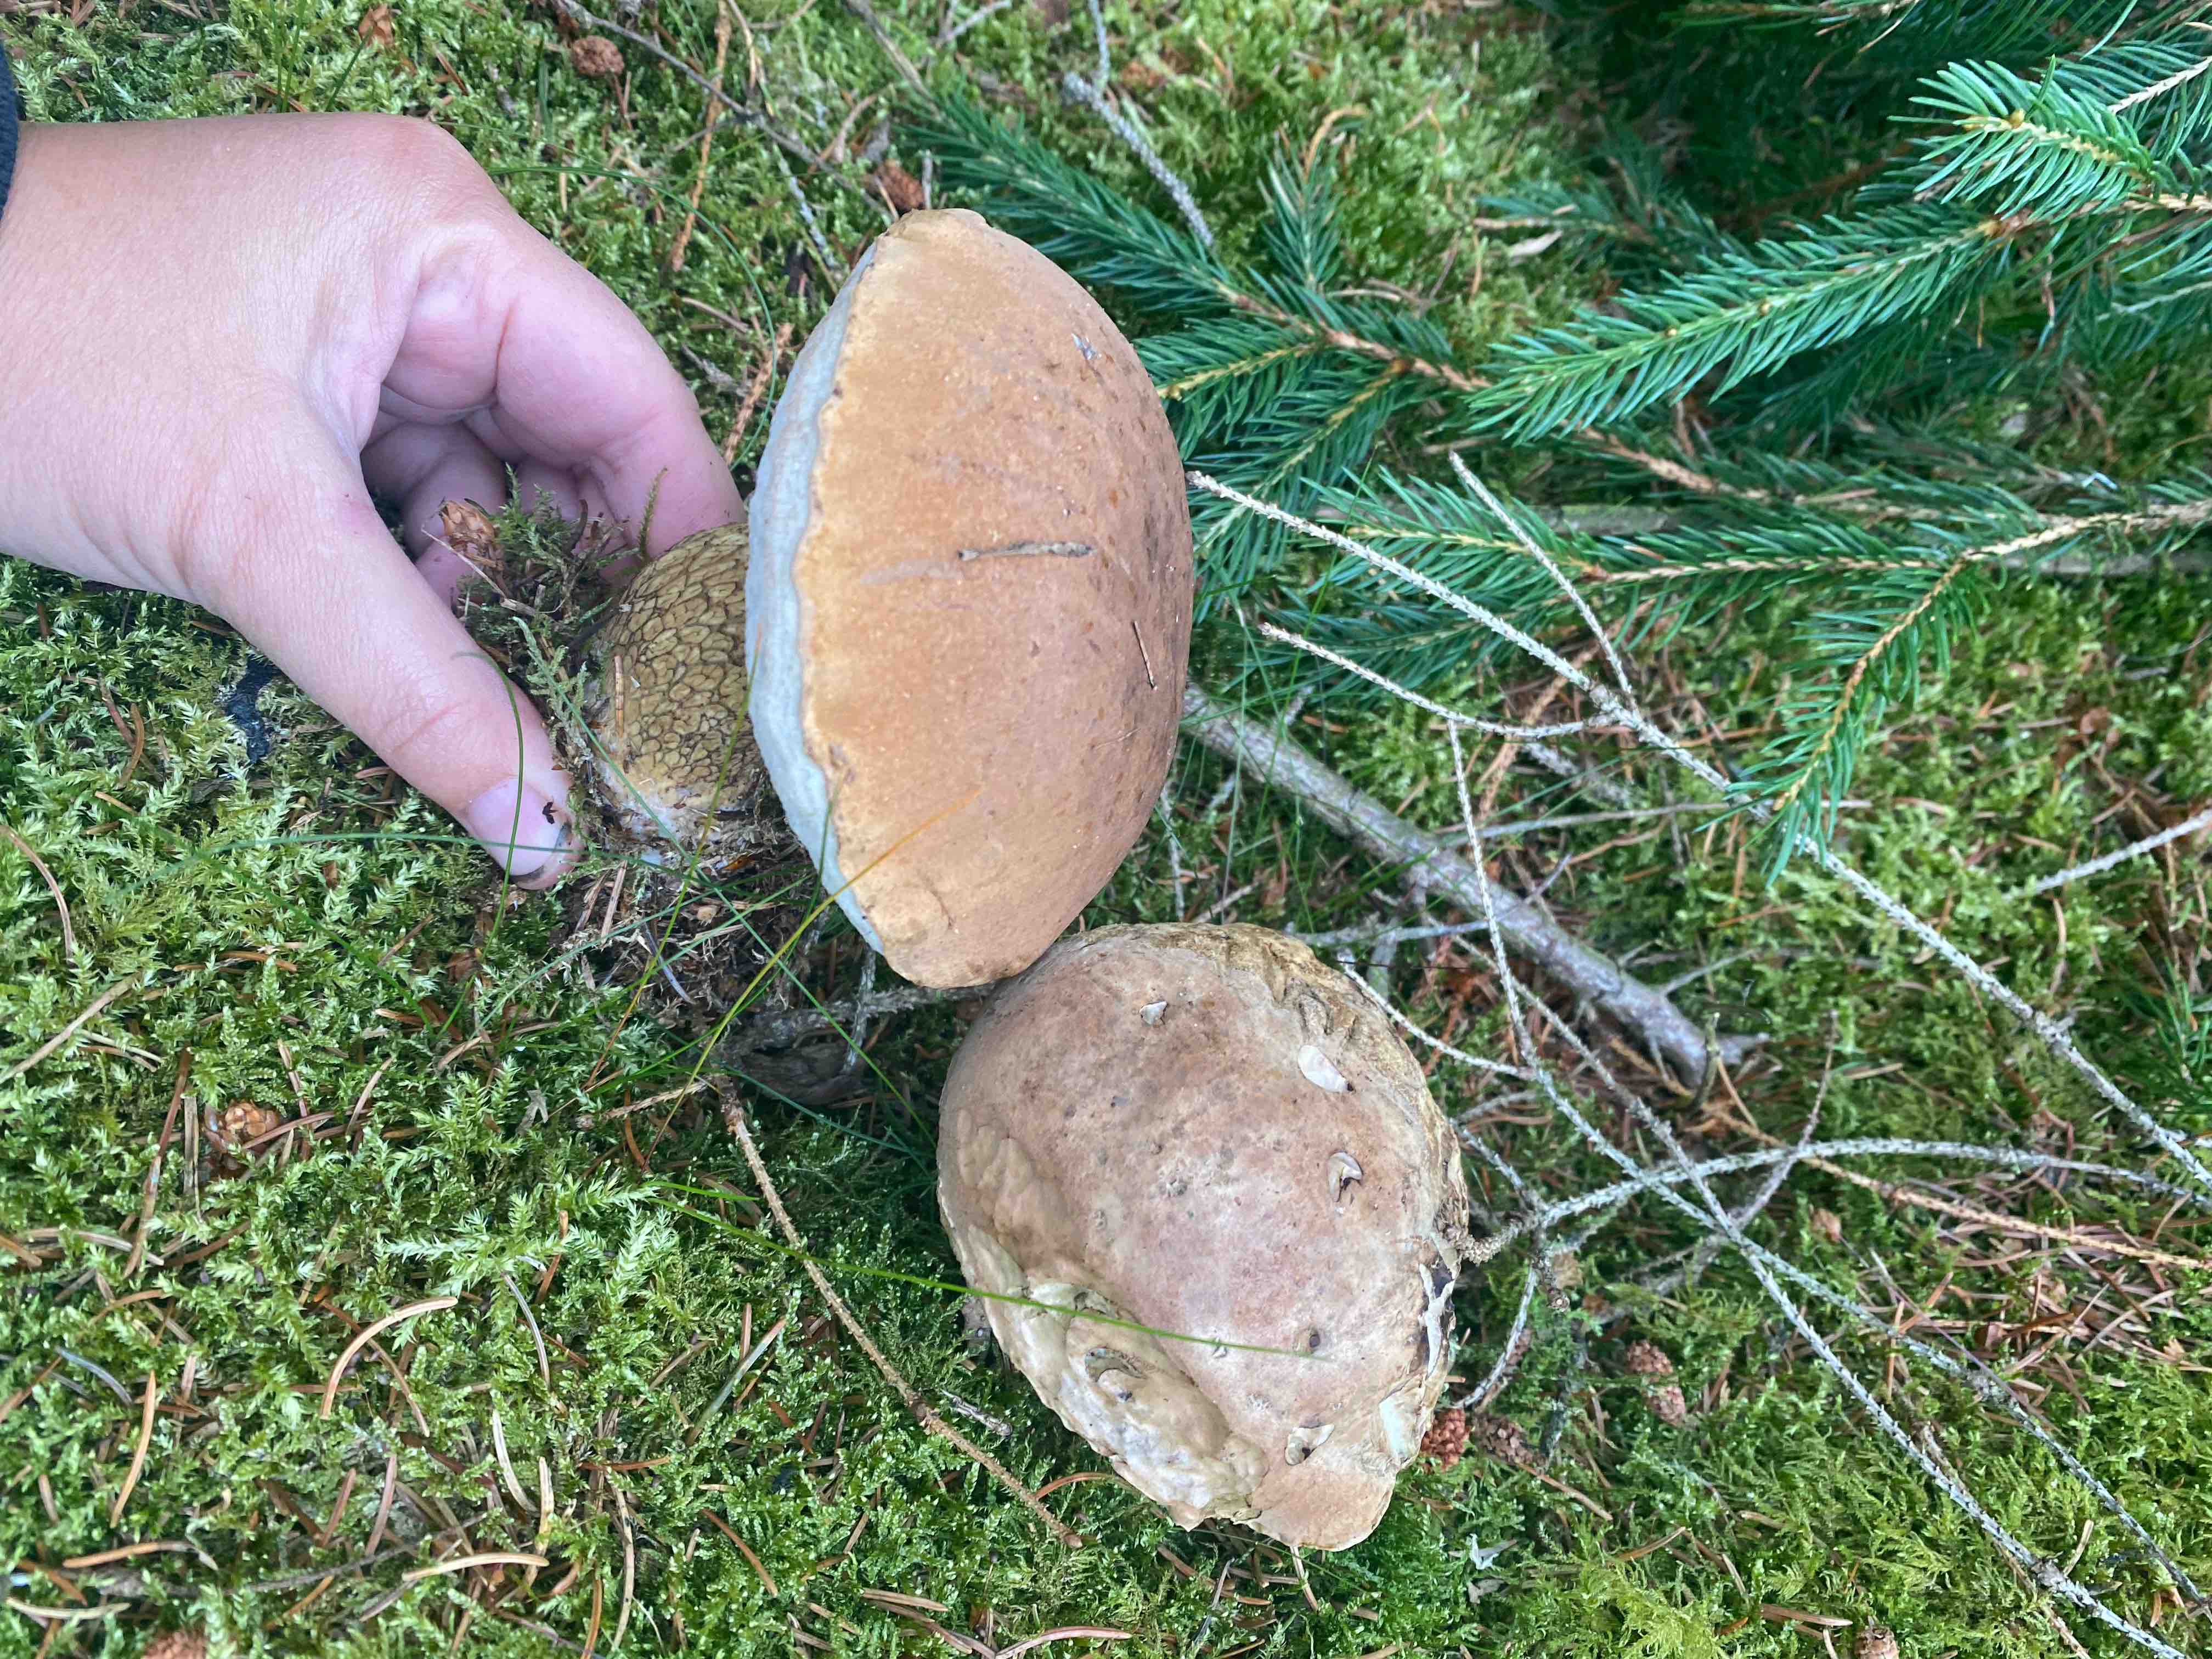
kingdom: Fungi
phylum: Basidiomycota
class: Agaricomycetes
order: Boletales
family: Boletaceae
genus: Tylopilus
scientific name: Tylopilus felleus
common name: galderørhat
